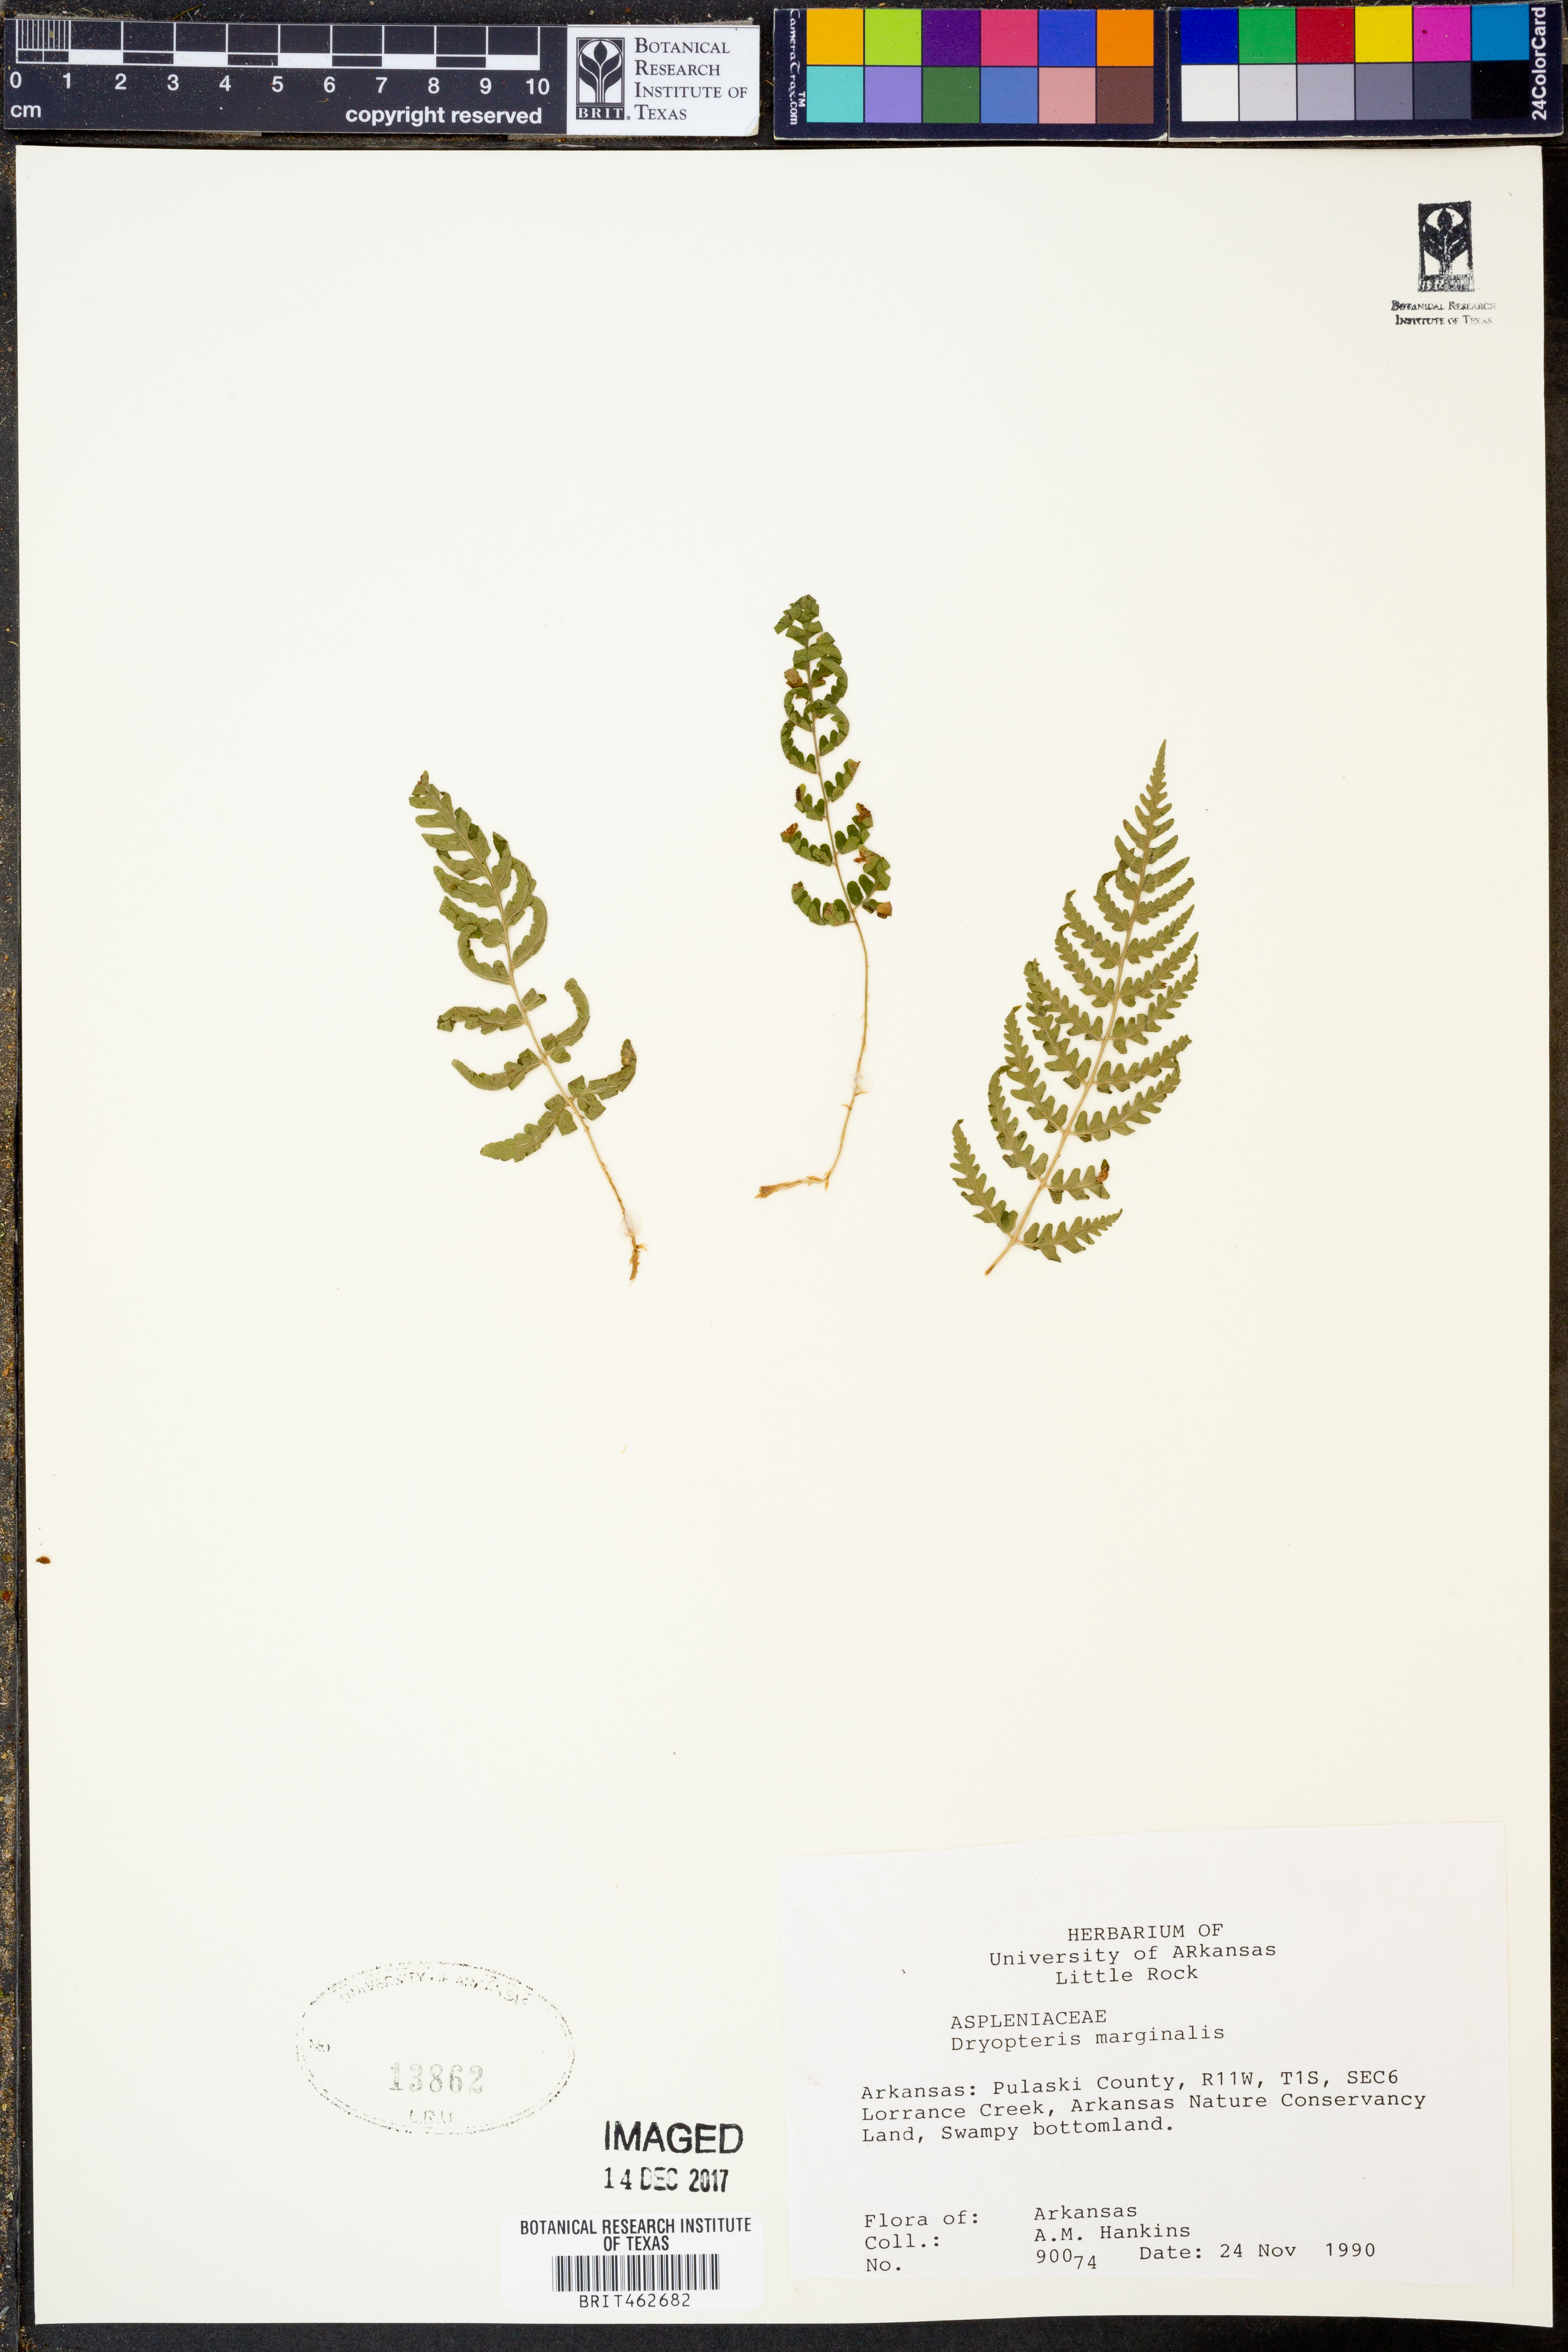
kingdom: Plantae
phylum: Tracheophyta
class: Polypodiopsida
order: Polypodiales
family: Dryopteridaceae
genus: Dryopteris
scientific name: Dryopteris marginalis
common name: Marginal wood fern
